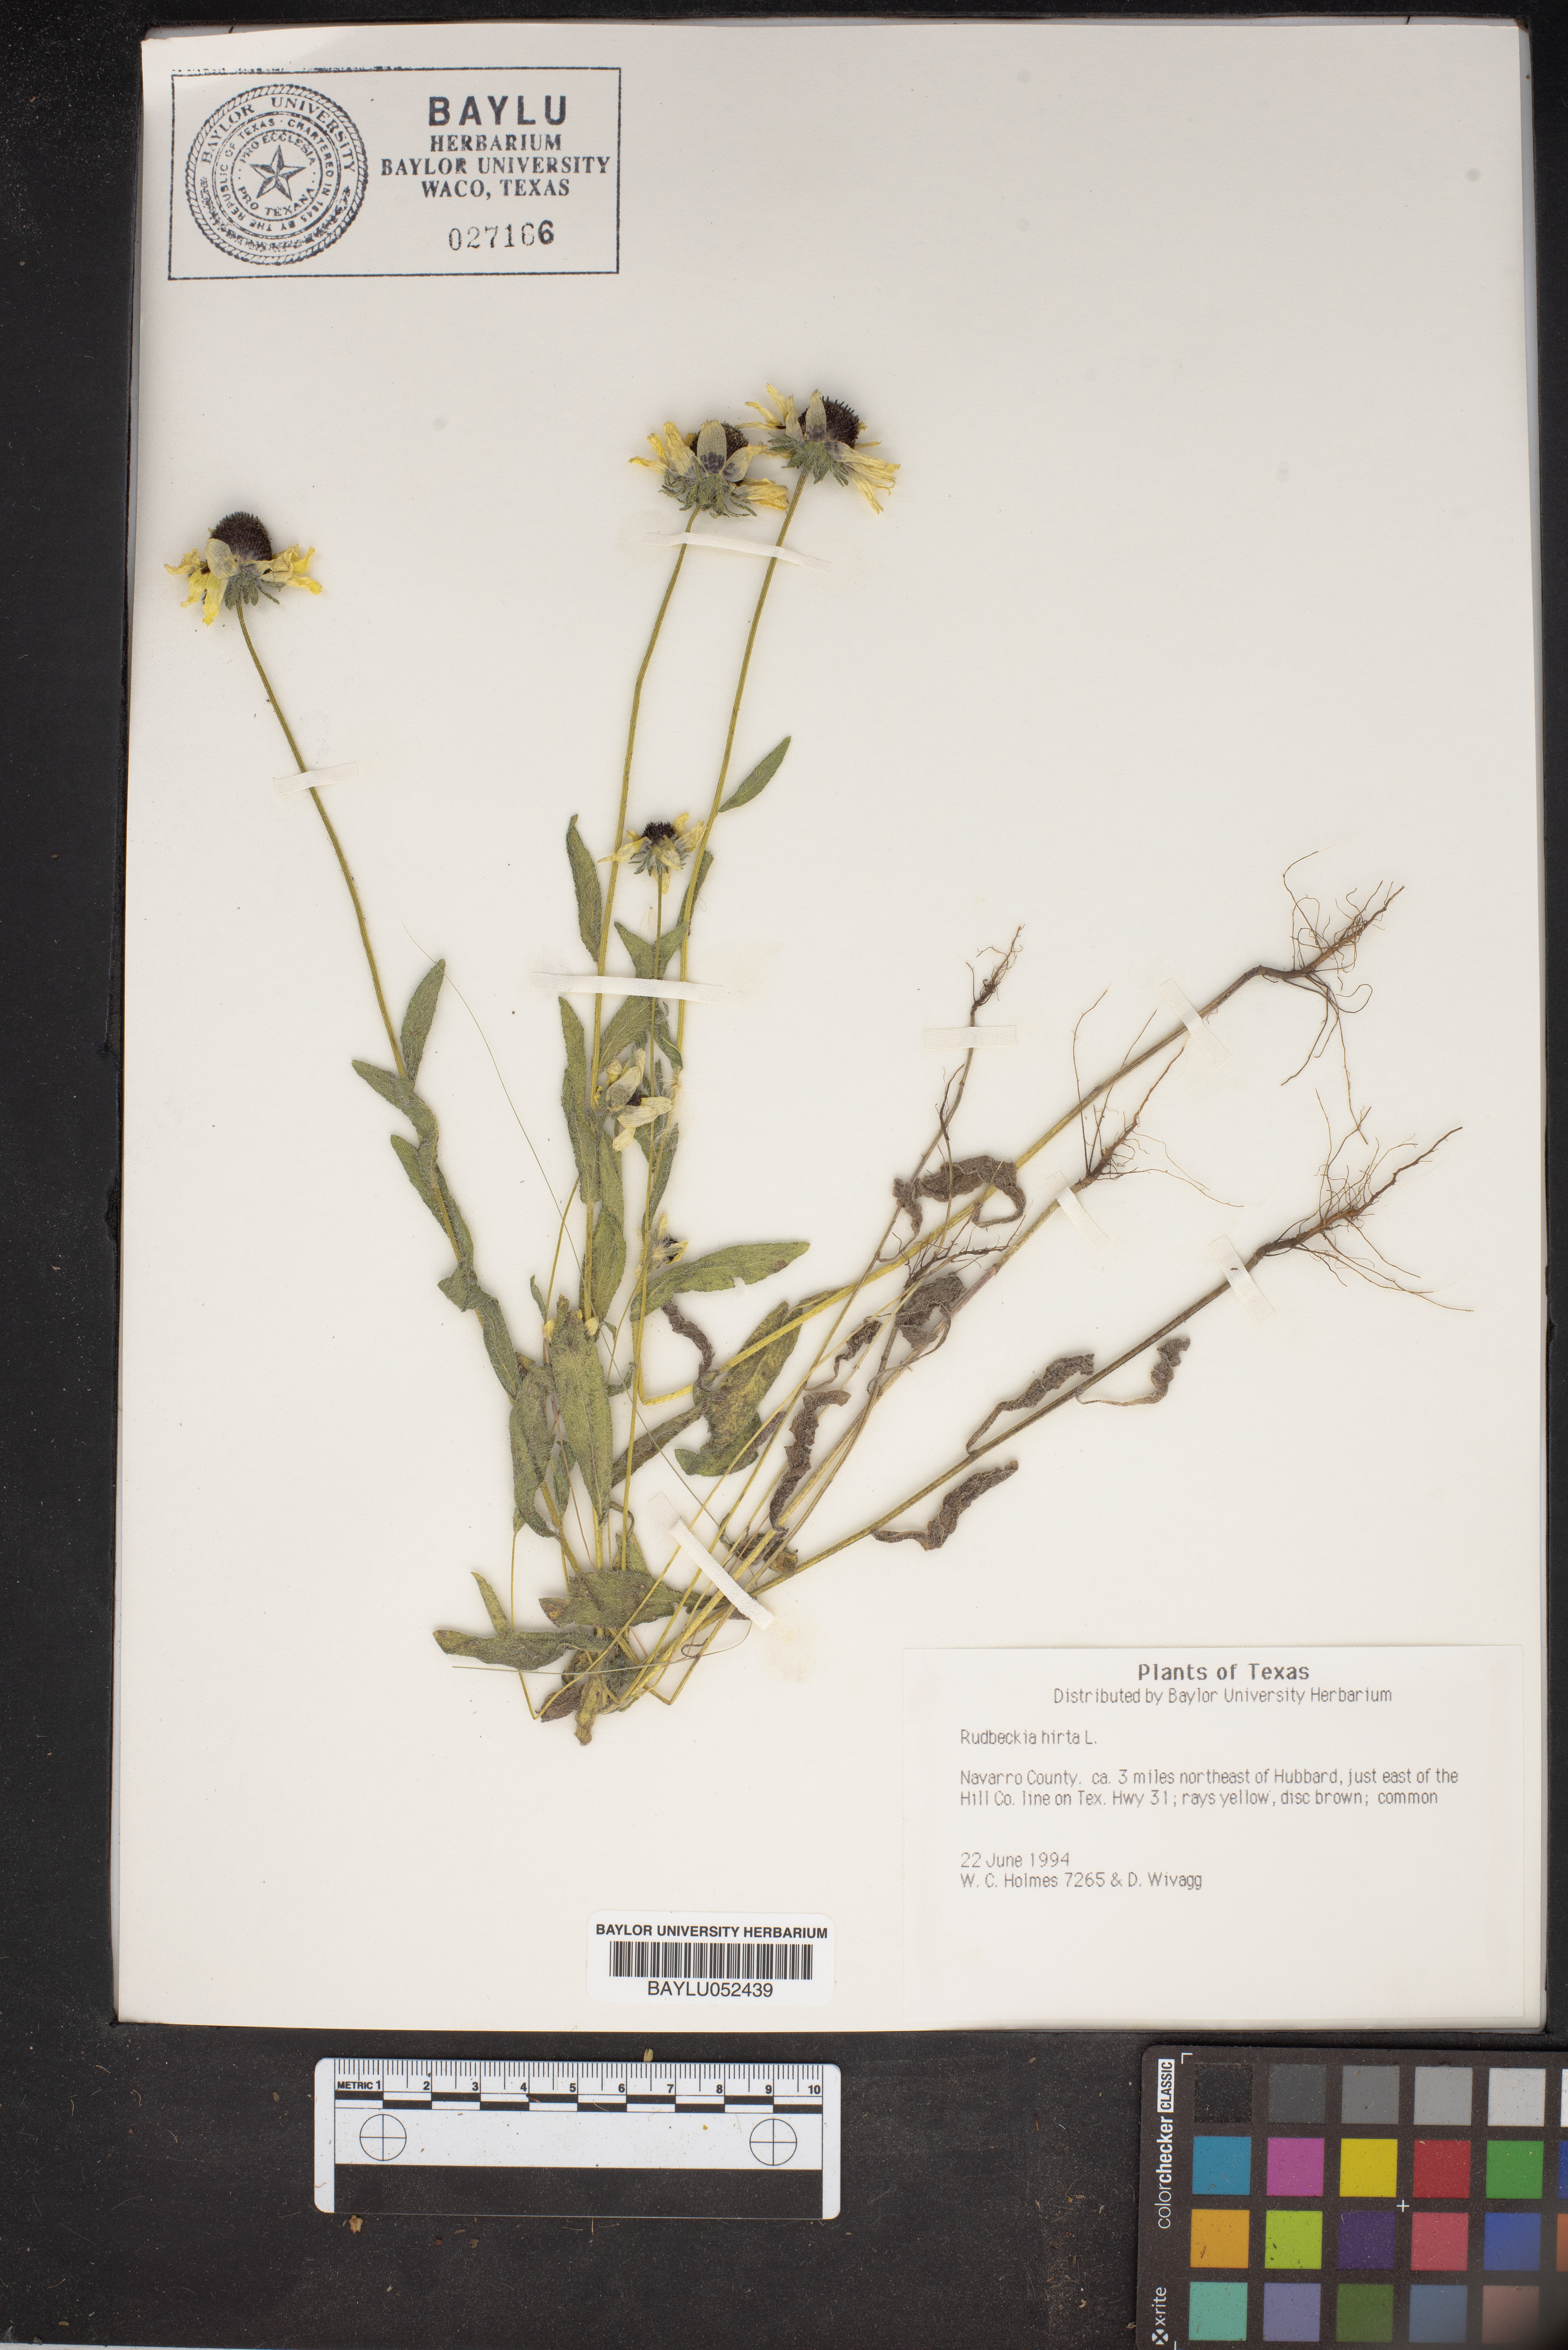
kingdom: Plantae
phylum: Tracheophyta
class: Magnoliopsida
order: Asterales
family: Asteraceae
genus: Rudbeckia
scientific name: Rudbeckia hirta
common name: Black-eyed-susan
